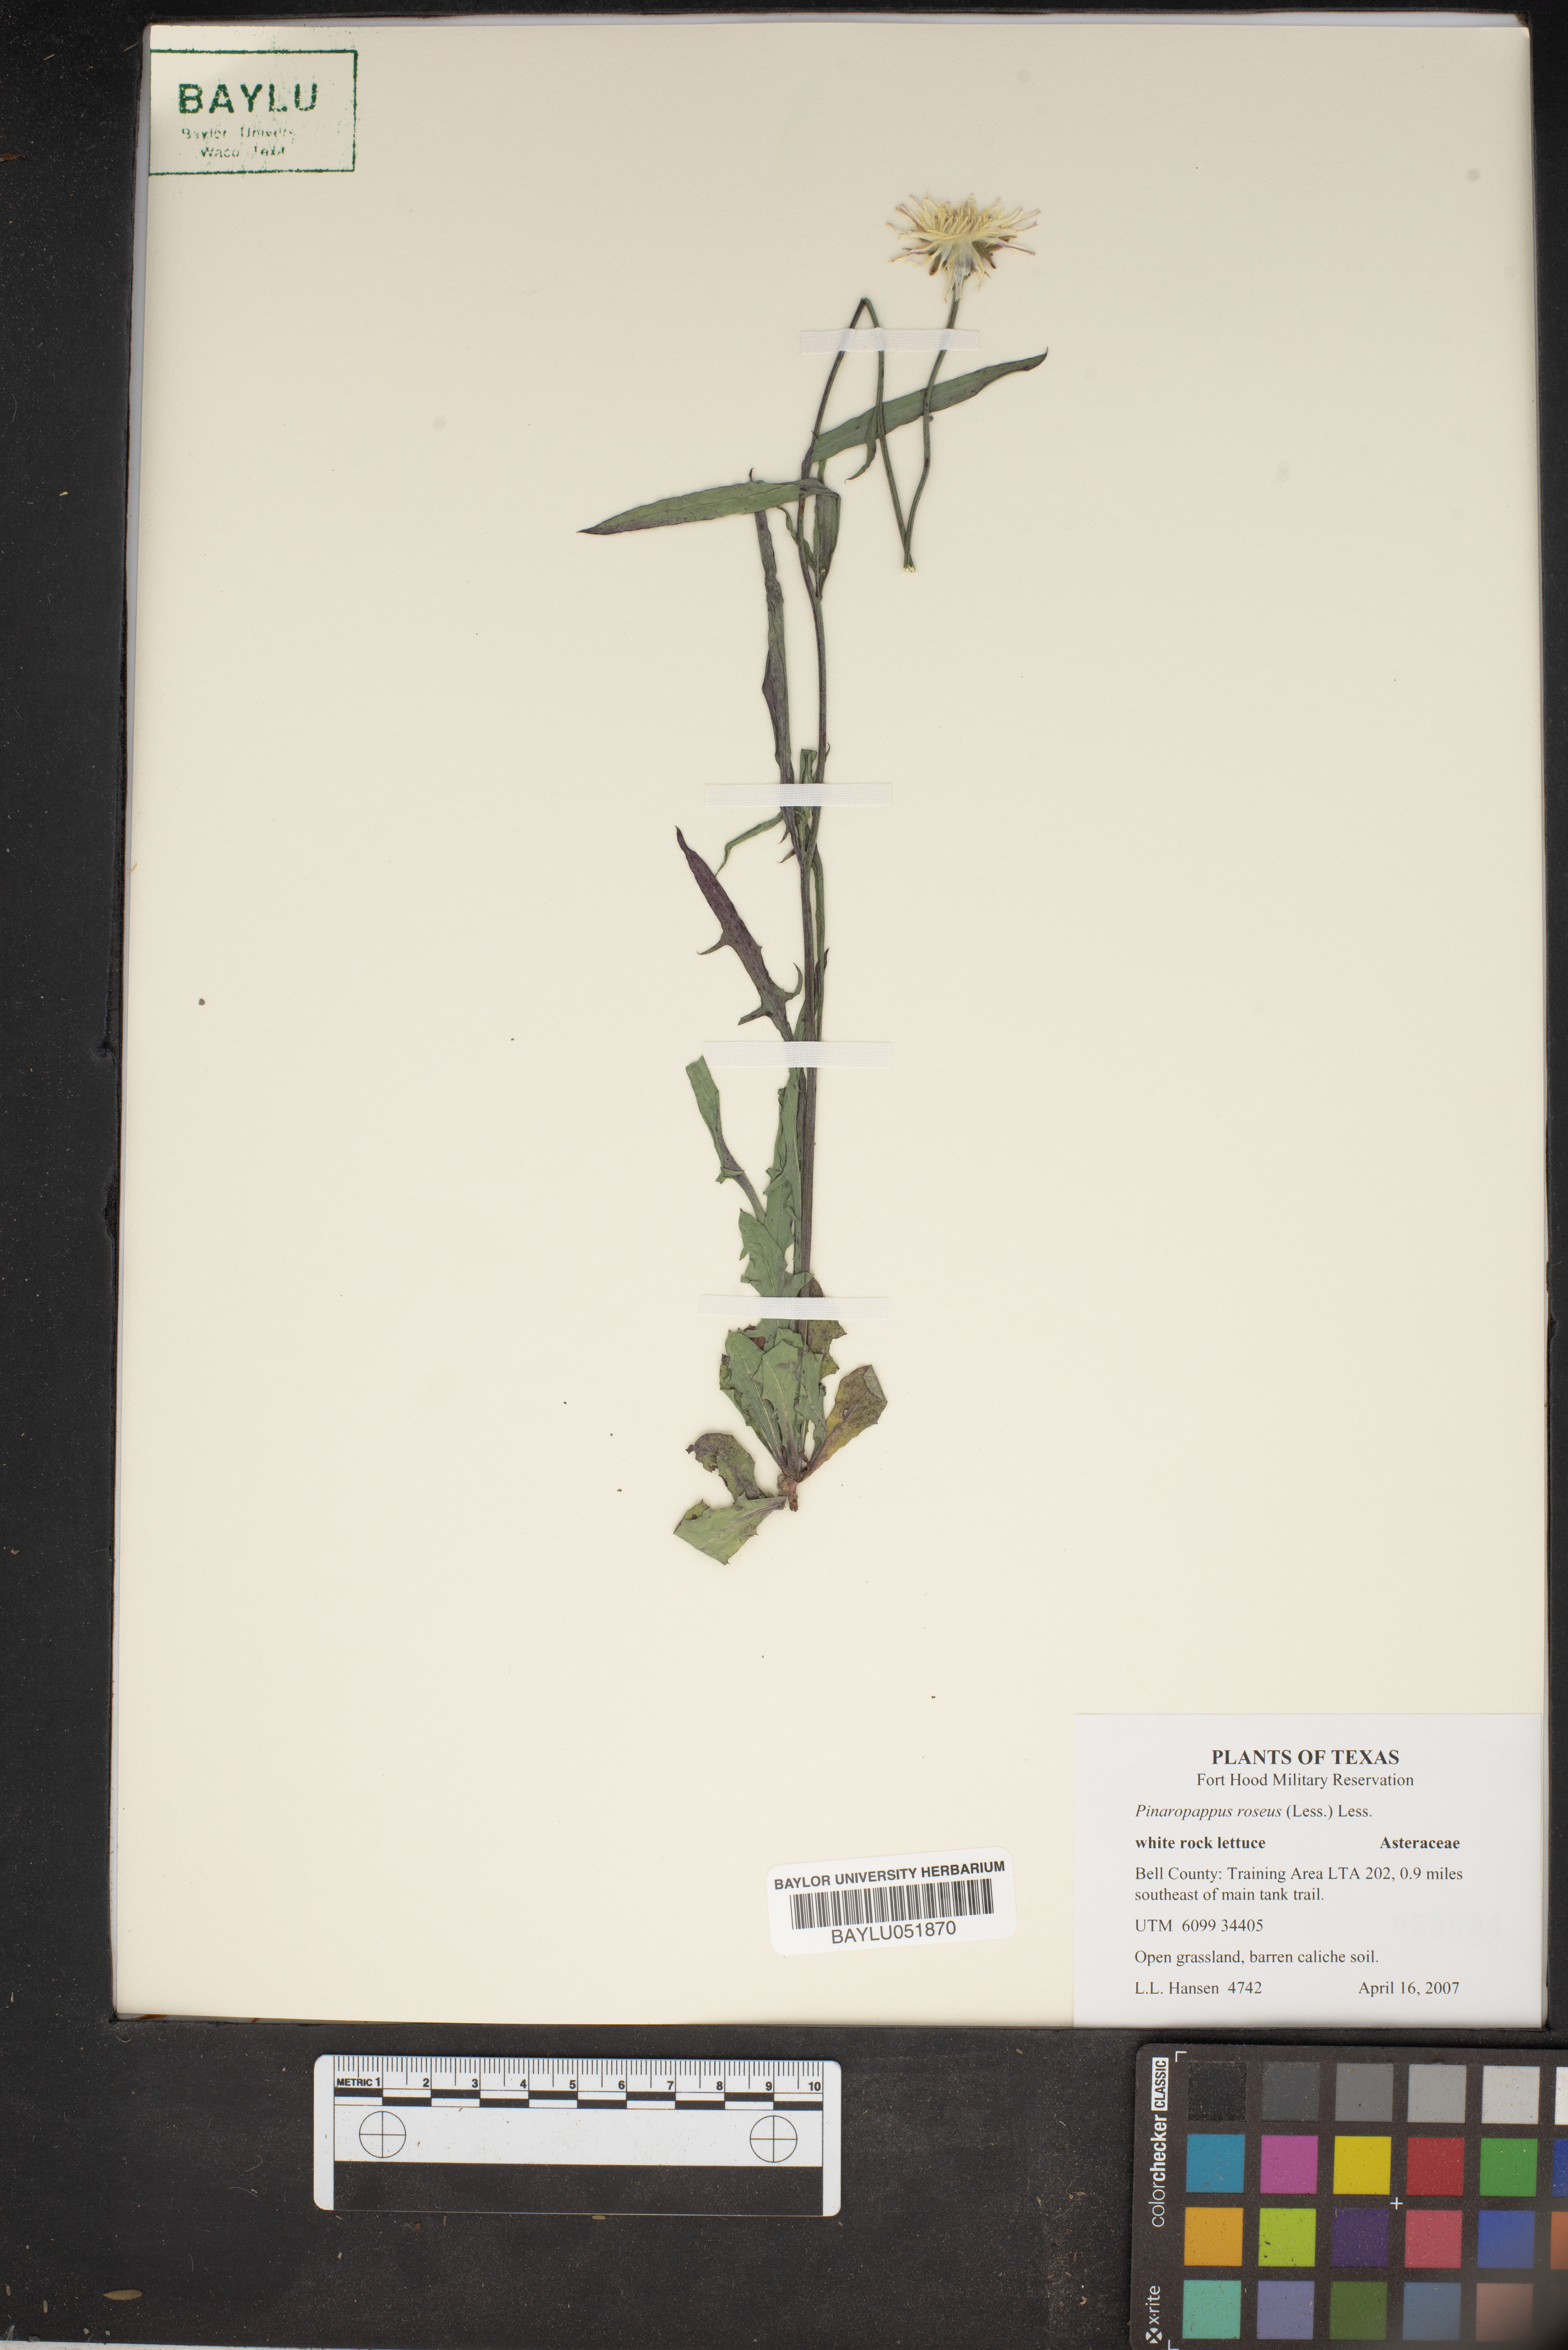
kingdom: Plantae
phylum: Tracheophyta
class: Magnoliopsida
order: Asterales
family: Asteraceae
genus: Pinaropappus
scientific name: Pinaropappus roseus
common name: Rock-lettuce
